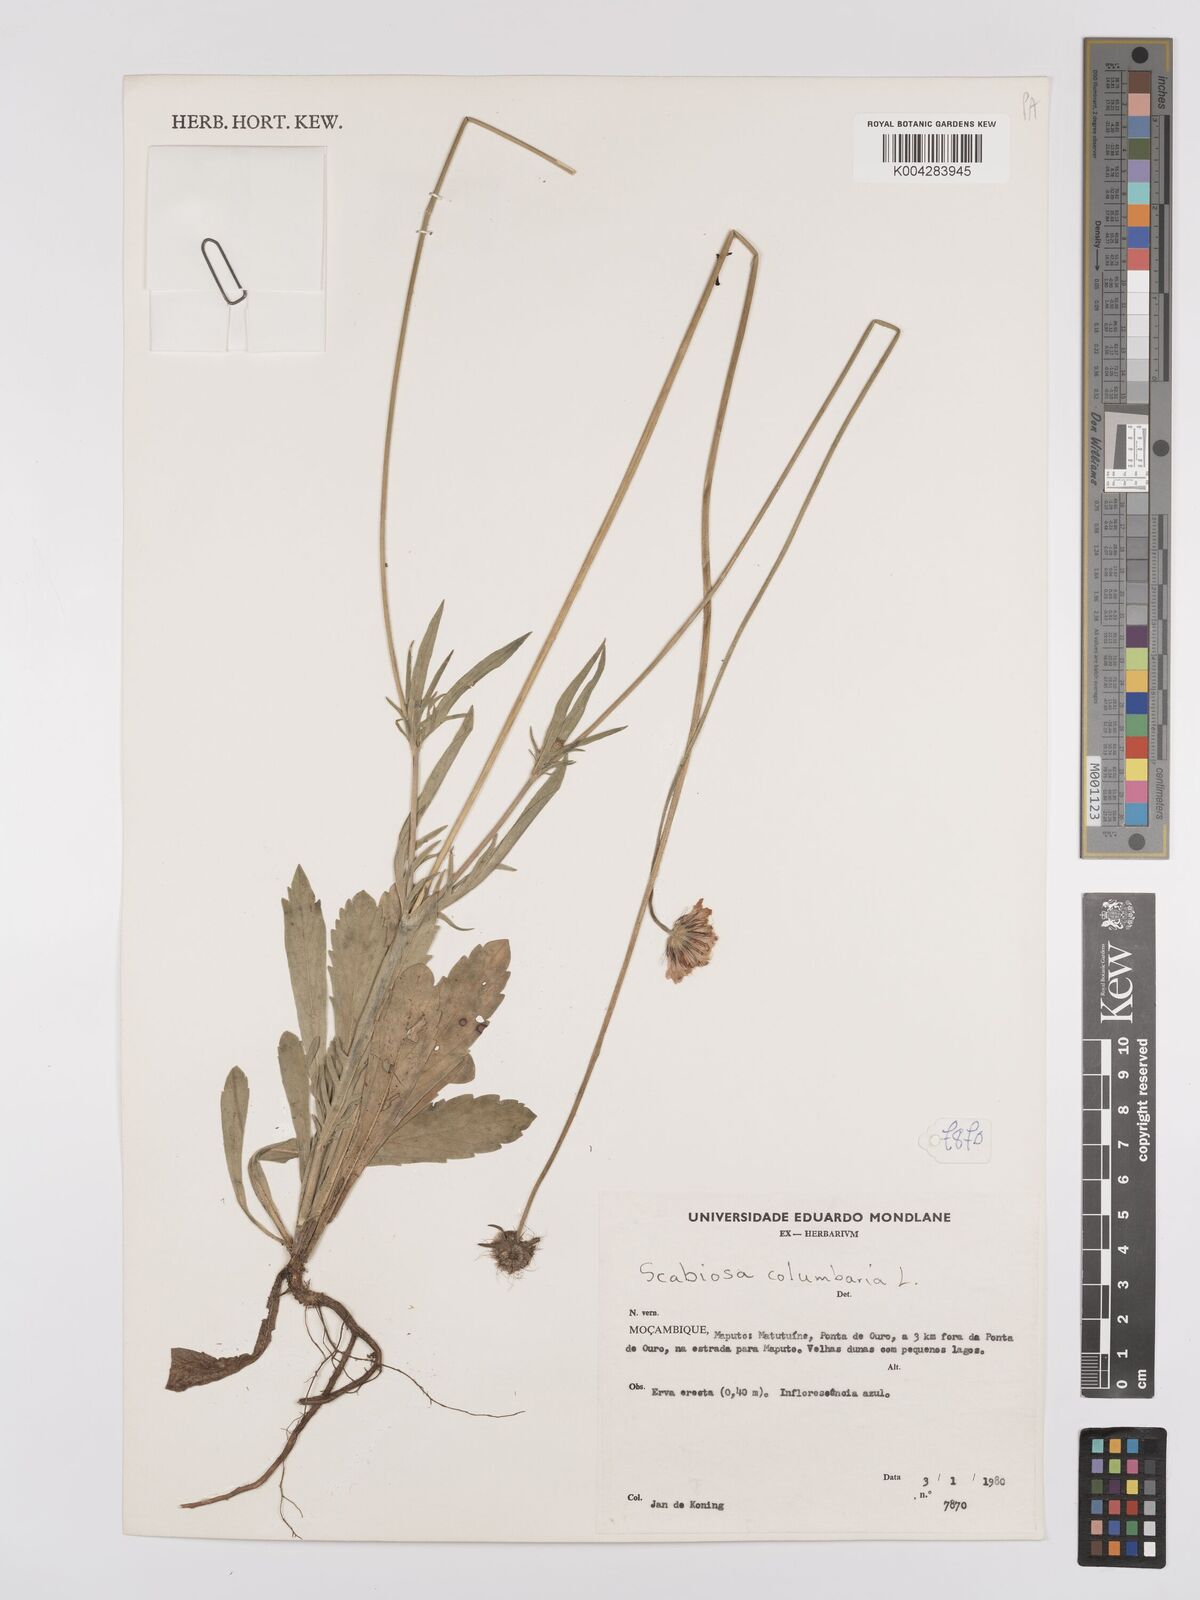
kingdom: Plantae
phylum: Tracheophyta
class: Magnoliopsida
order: Dipsacales
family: Caprifoliaceae
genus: Scabiosa
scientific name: Scabiosa austroafricana
